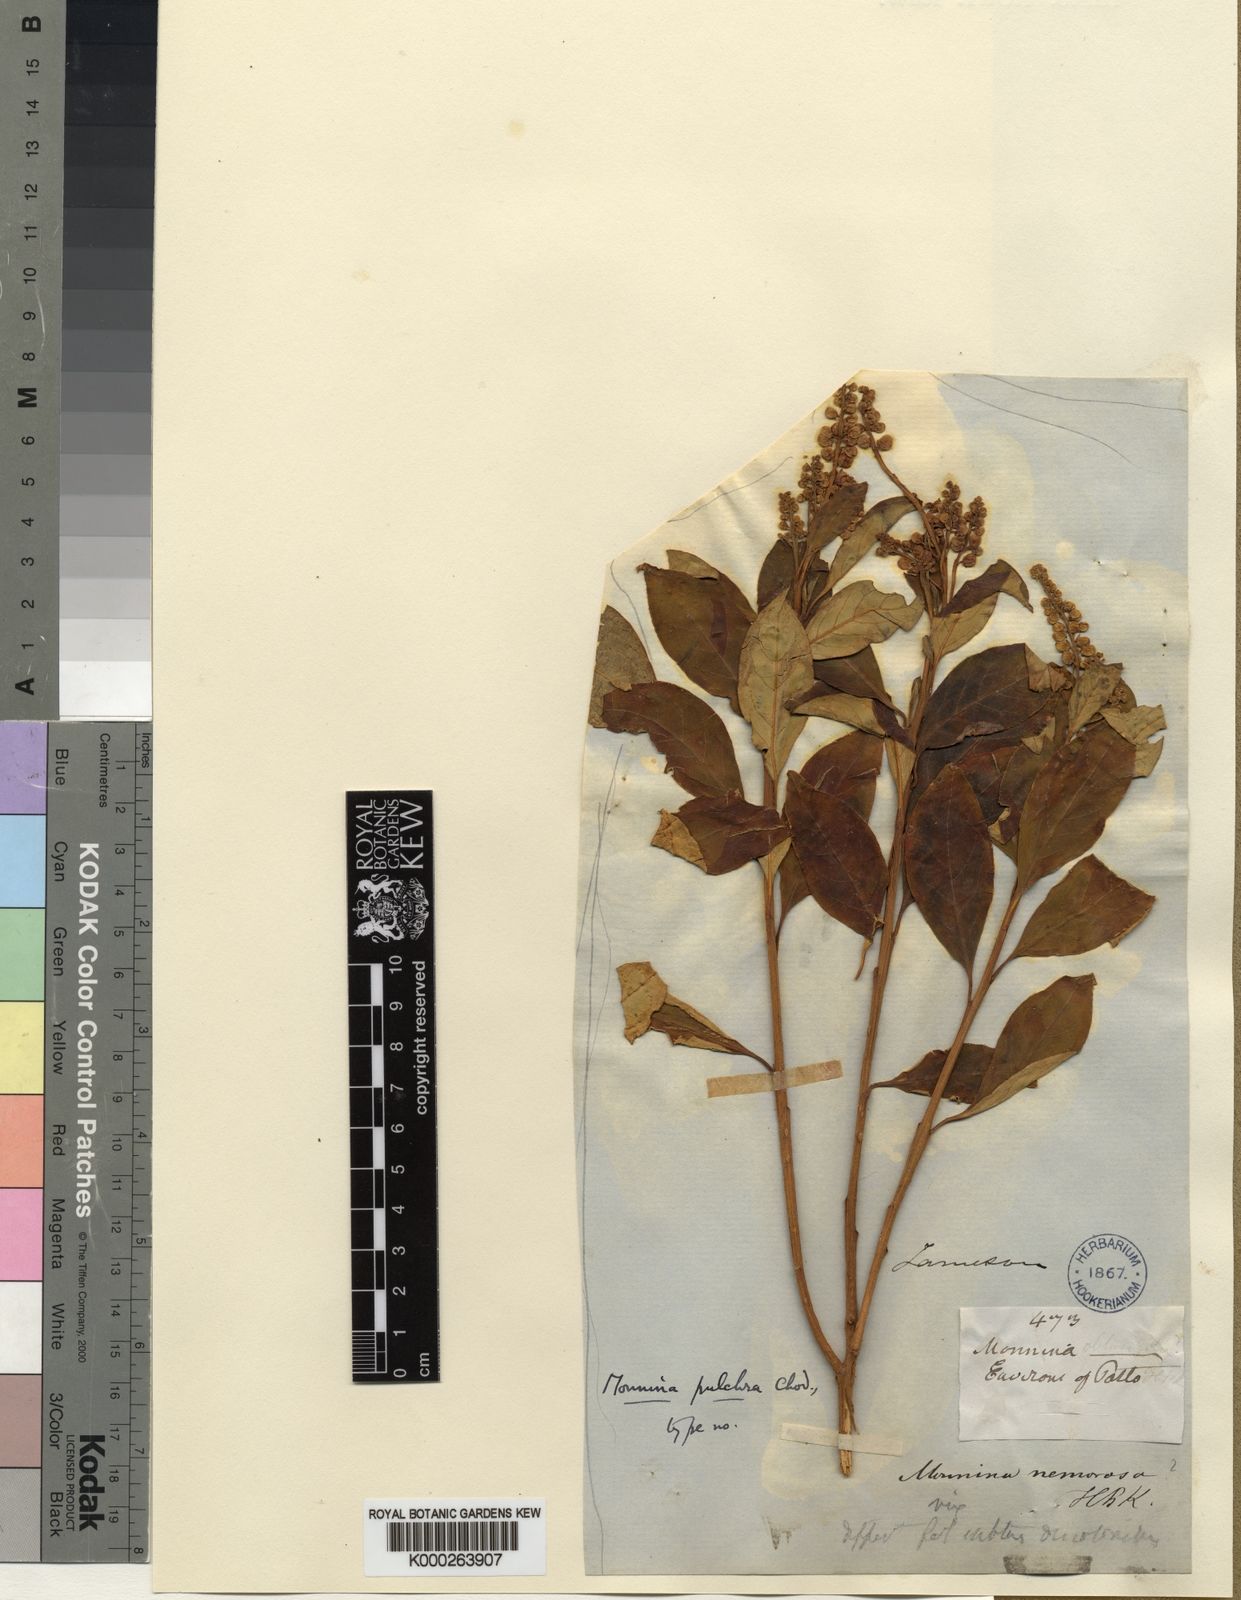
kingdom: Plantae
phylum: Tracheophyta
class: Magnoliopsida
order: Fabales
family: Polygalaceae
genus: Monnina
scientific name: Monnina pulchra
